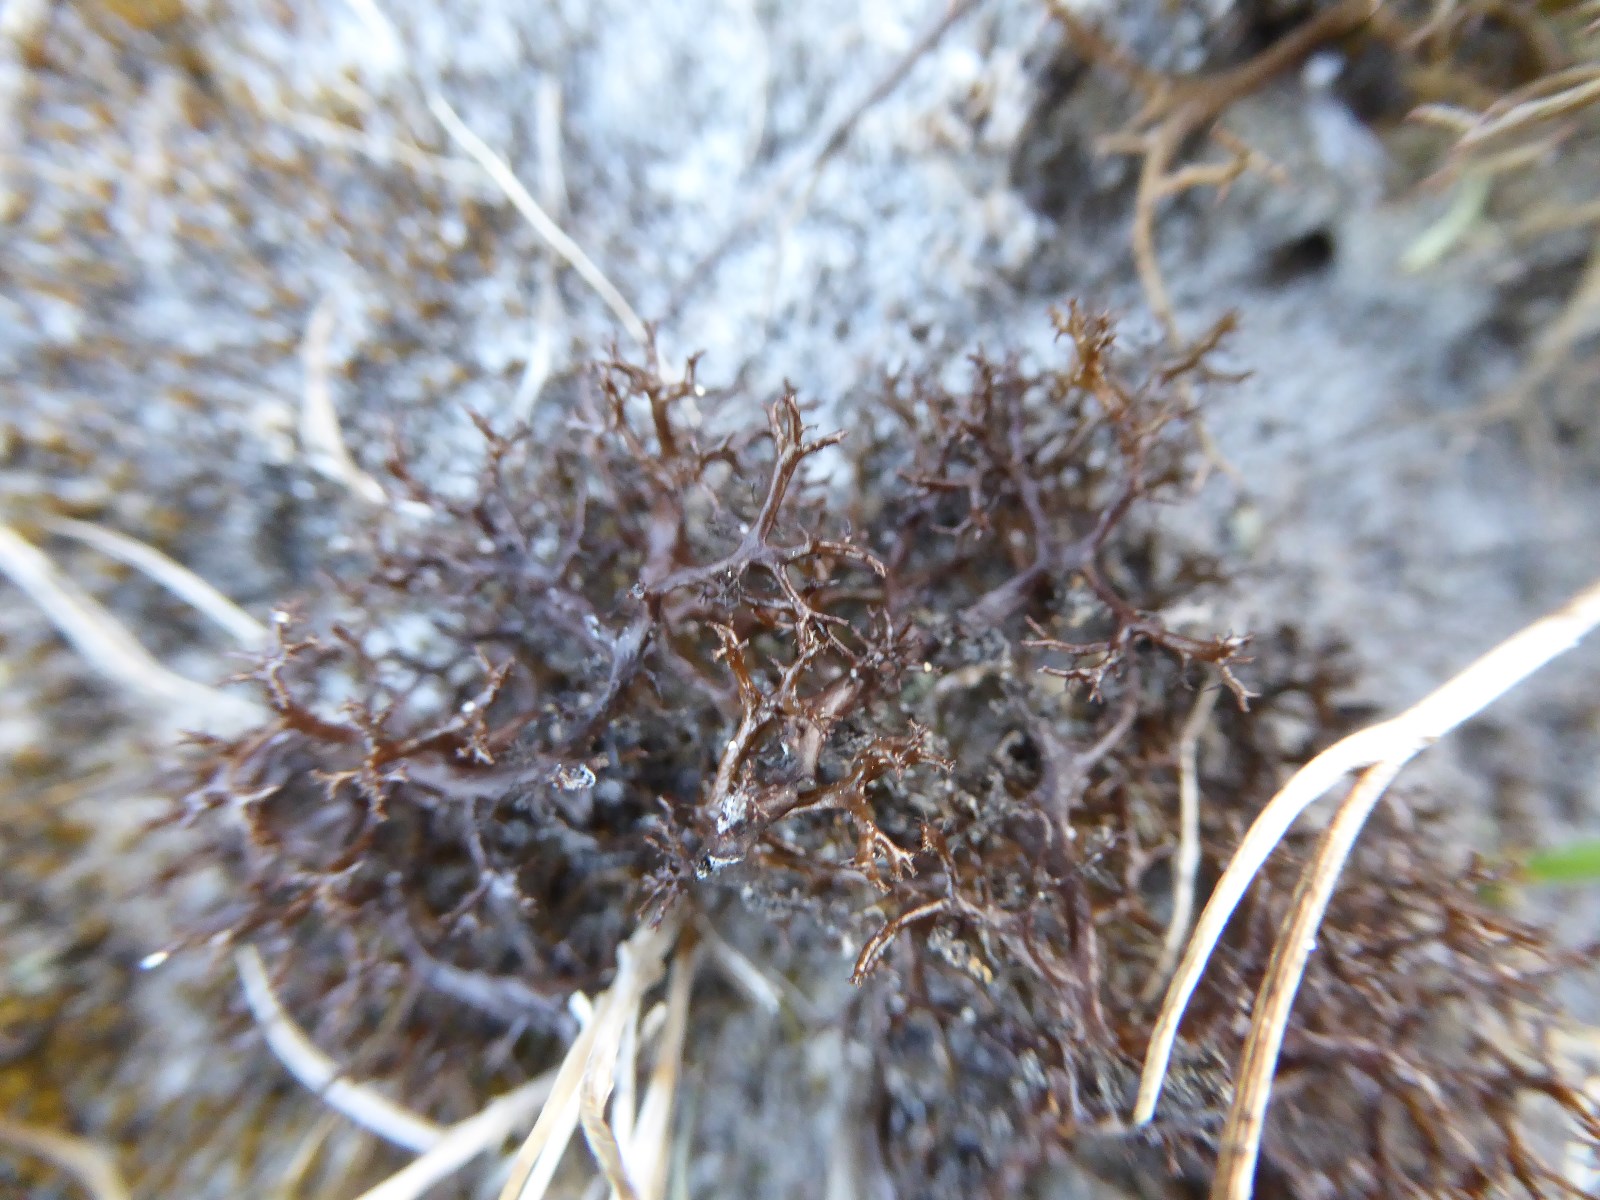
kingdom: Fungi
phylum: Ascomycota
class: Lecanoromycetes
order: Lecanorales
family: Parmeliaceae
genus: Cetraria
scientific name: Cetraria muricata
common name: tue-tjørnelav
